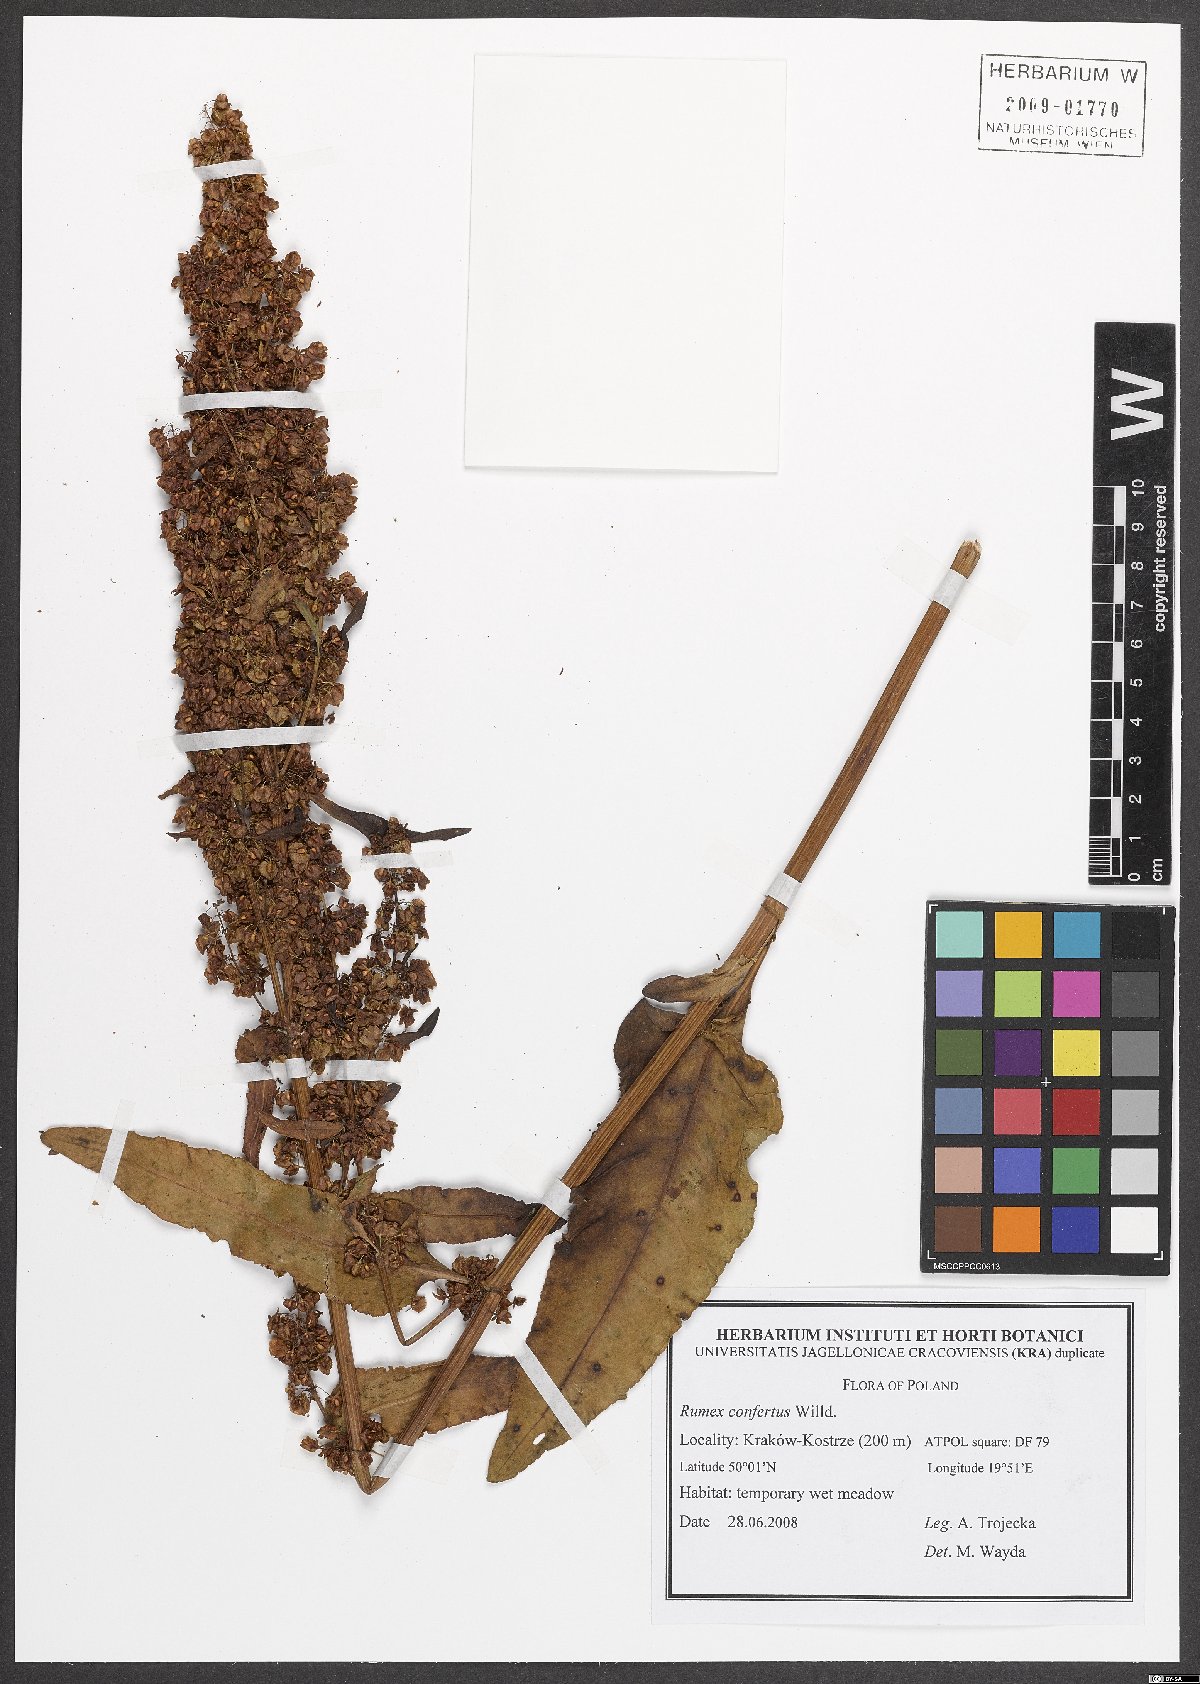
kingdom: Plantae
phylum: Tracheophyta
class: Magnoliopsida
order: Caryophyllales
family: Polygonaceae
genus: Rumex
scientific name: Rumex confertus
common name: Russian dock
